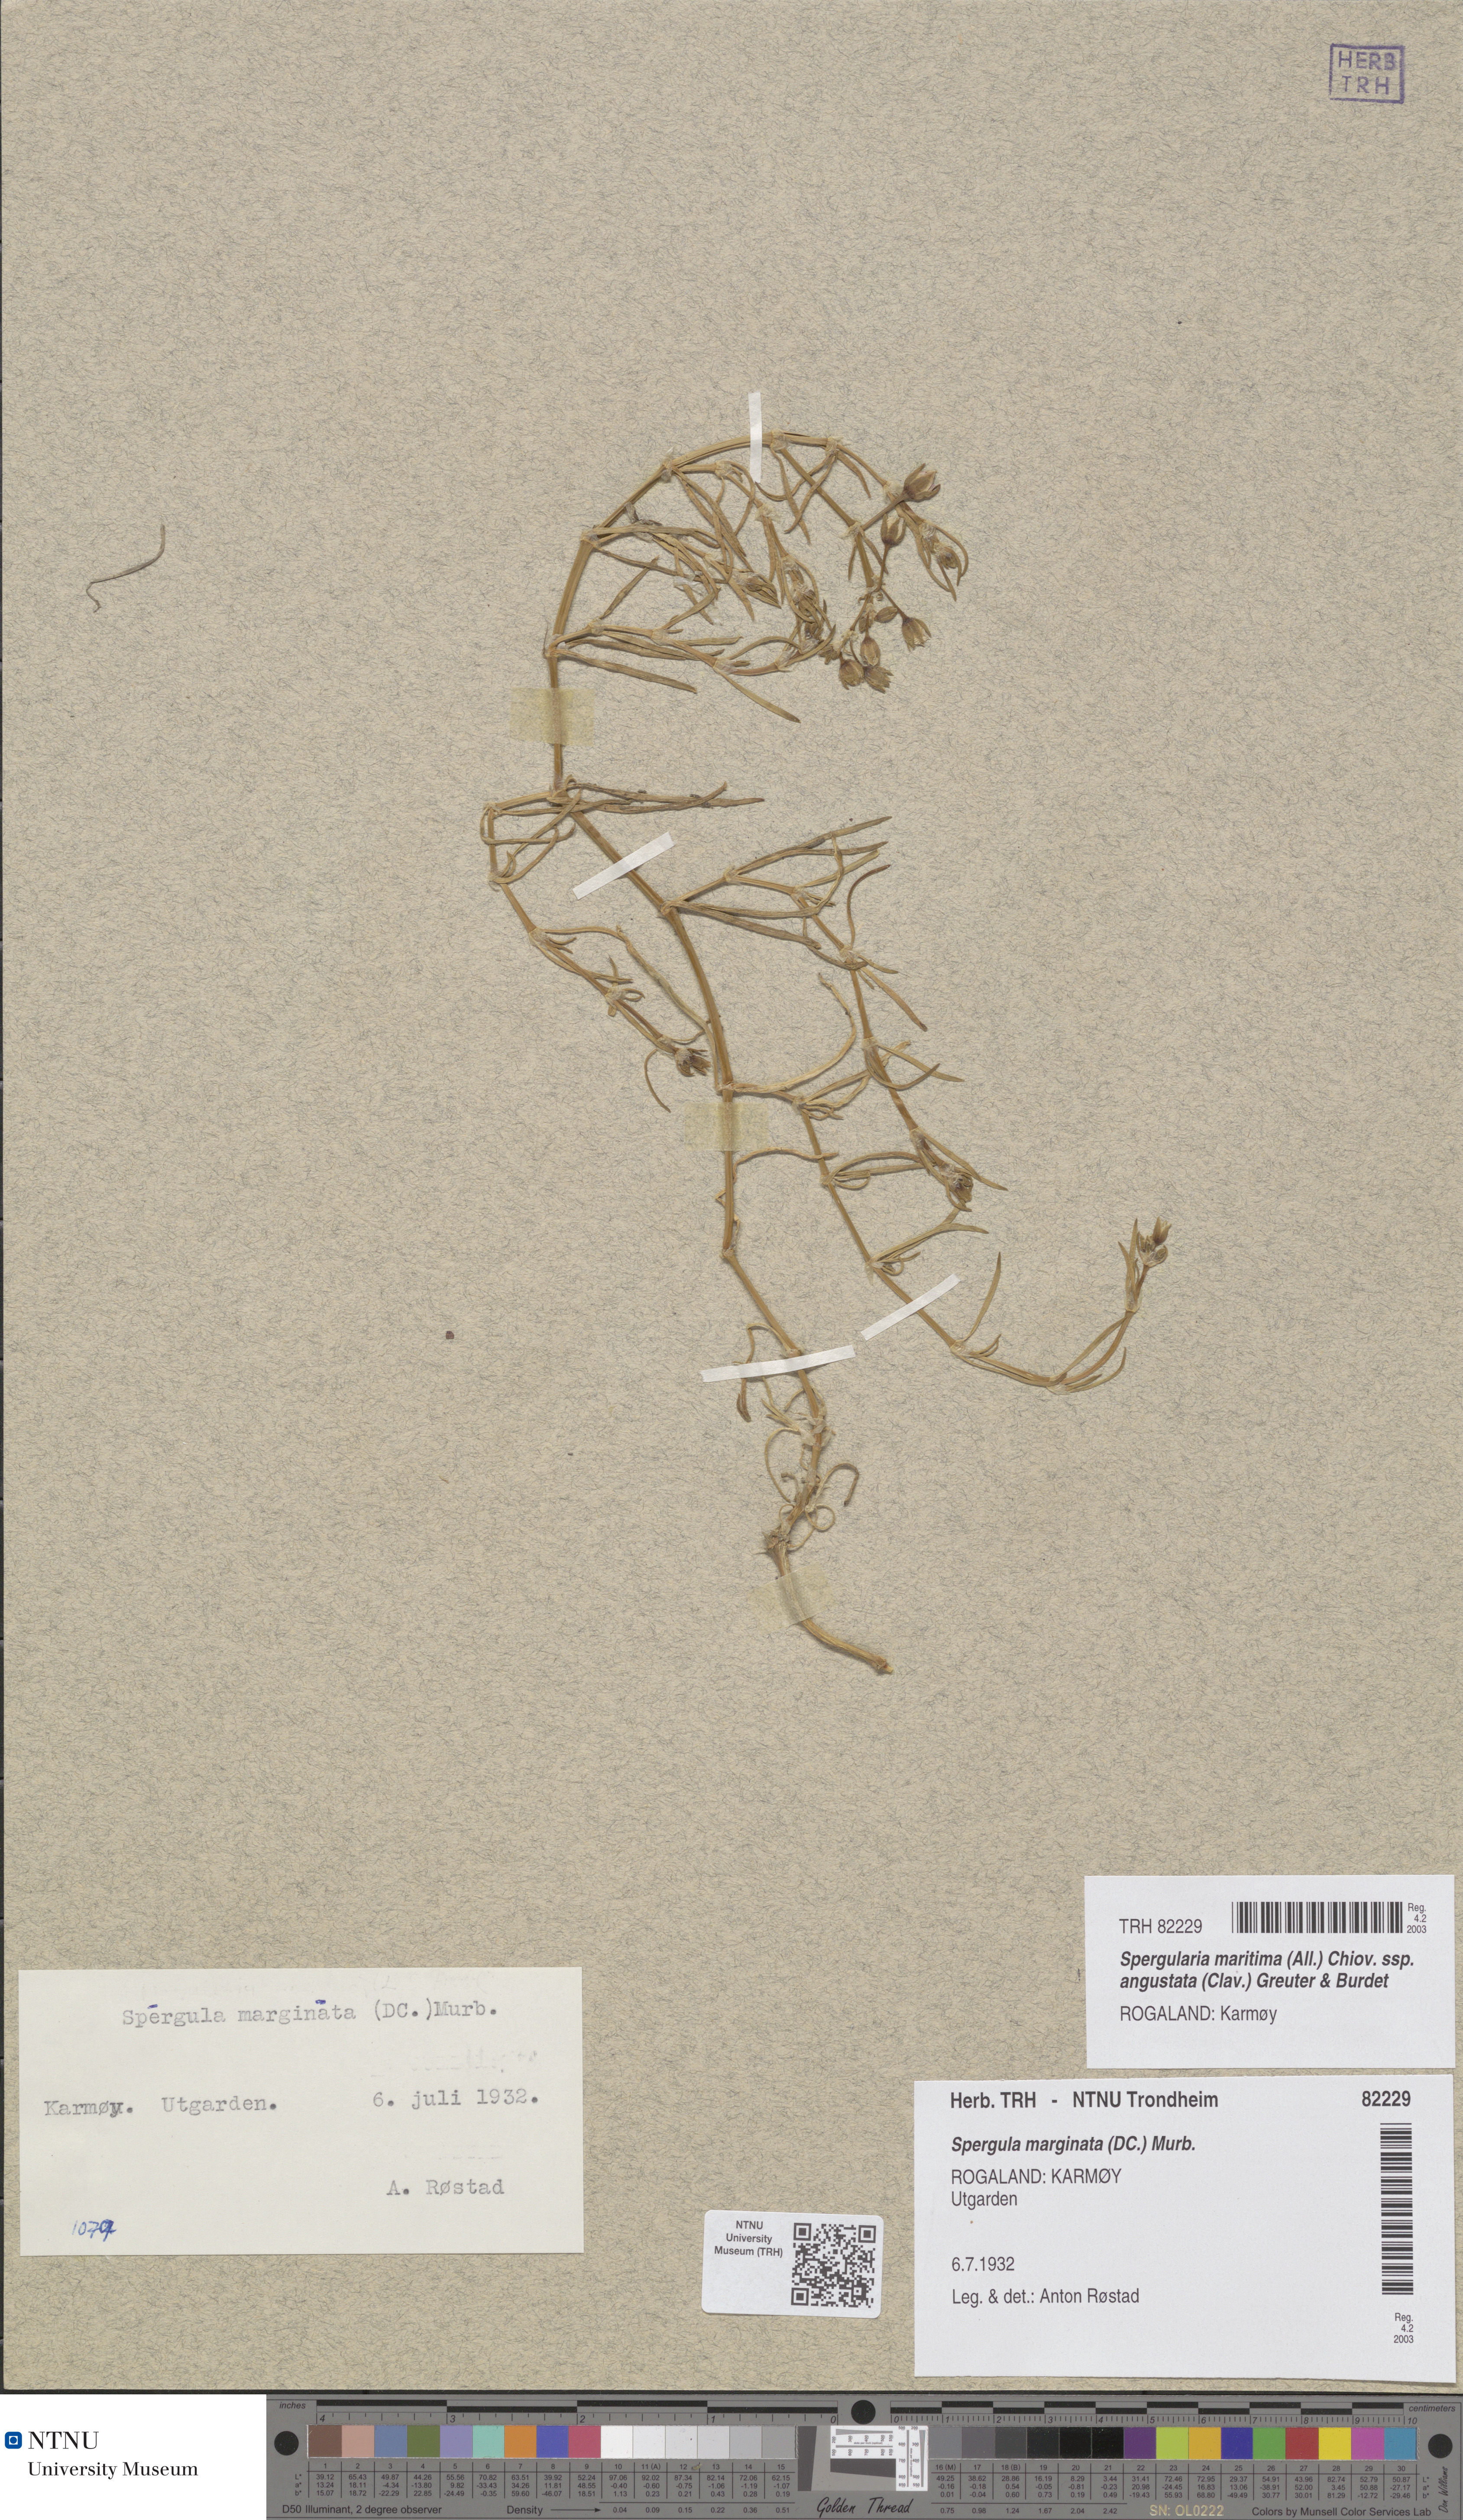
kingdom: Plantae
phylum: Tracheophyta
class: Magnoliopsida
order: Caryophyllales
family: Caryophyllaceae
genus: Spergularia
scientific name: Spergularia media
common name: Greater sea-spurrey
